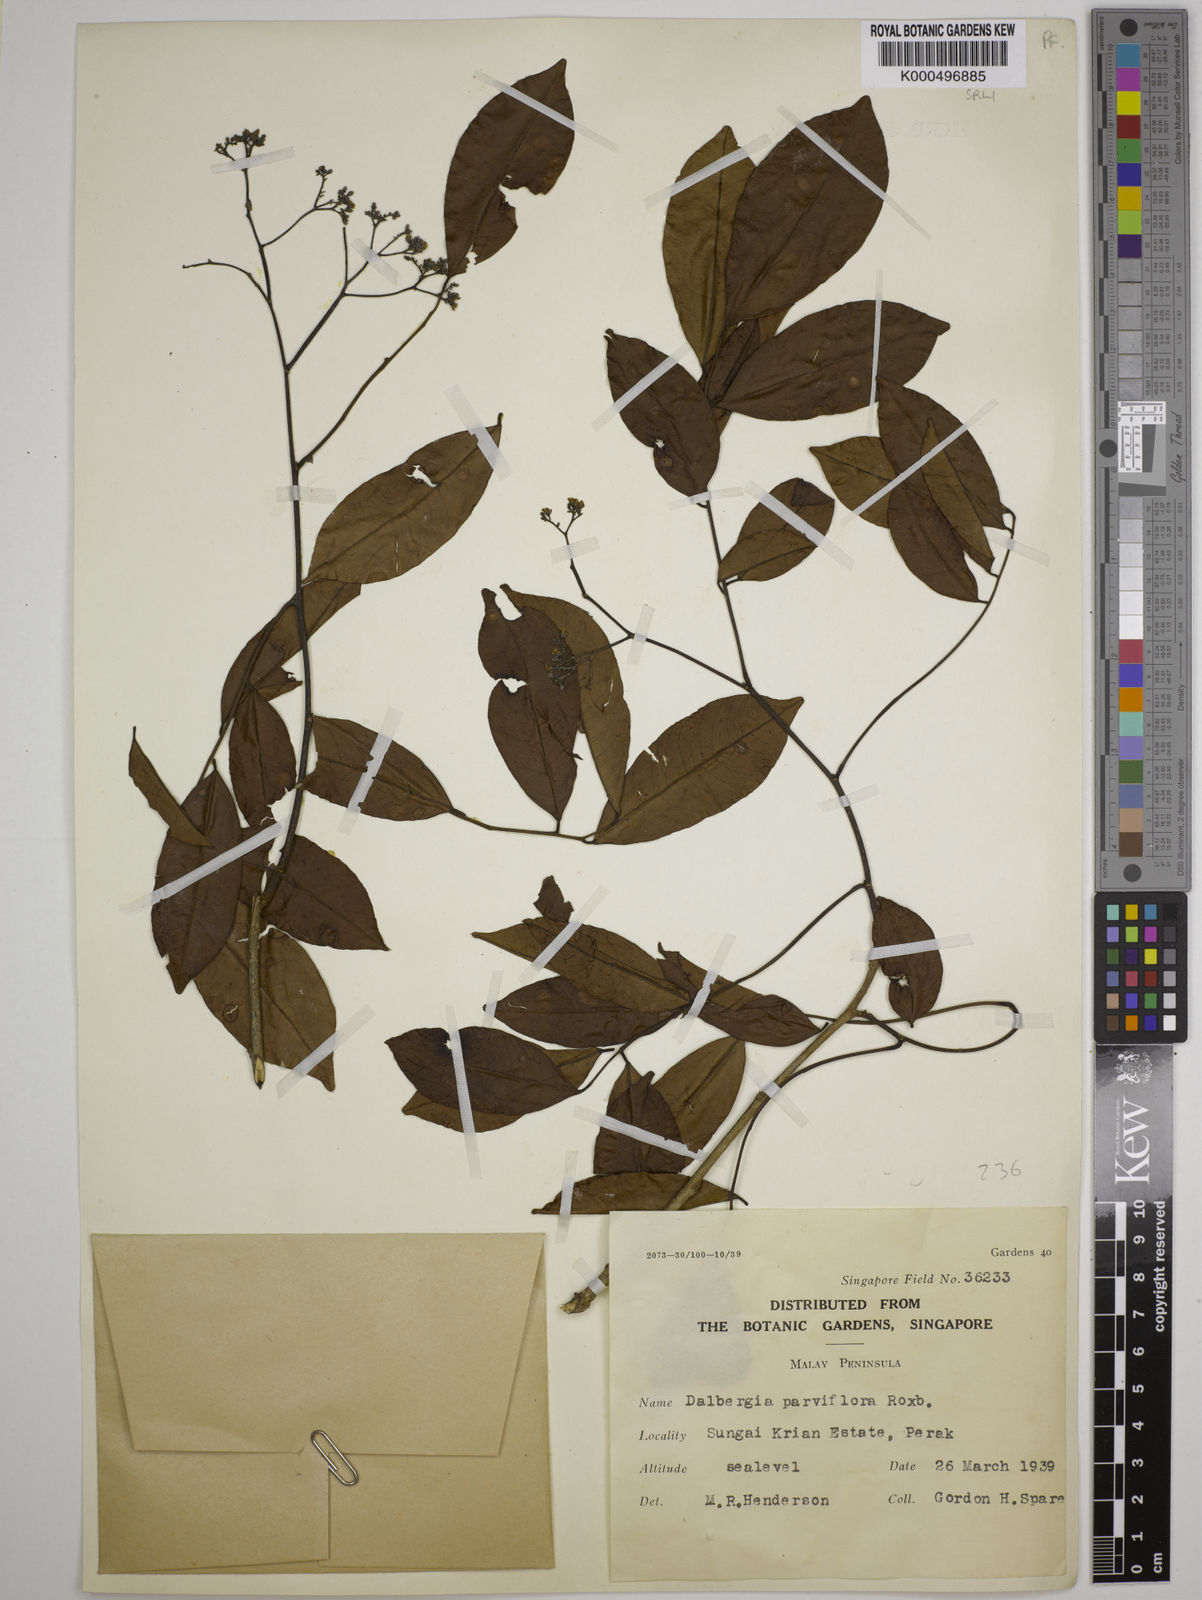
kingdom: Plantae
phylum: Tracheophyta
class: Magnoliopsida
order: Fabales
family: Fabaceae
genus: Dalbergia
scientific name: Dalbergia parviflora
